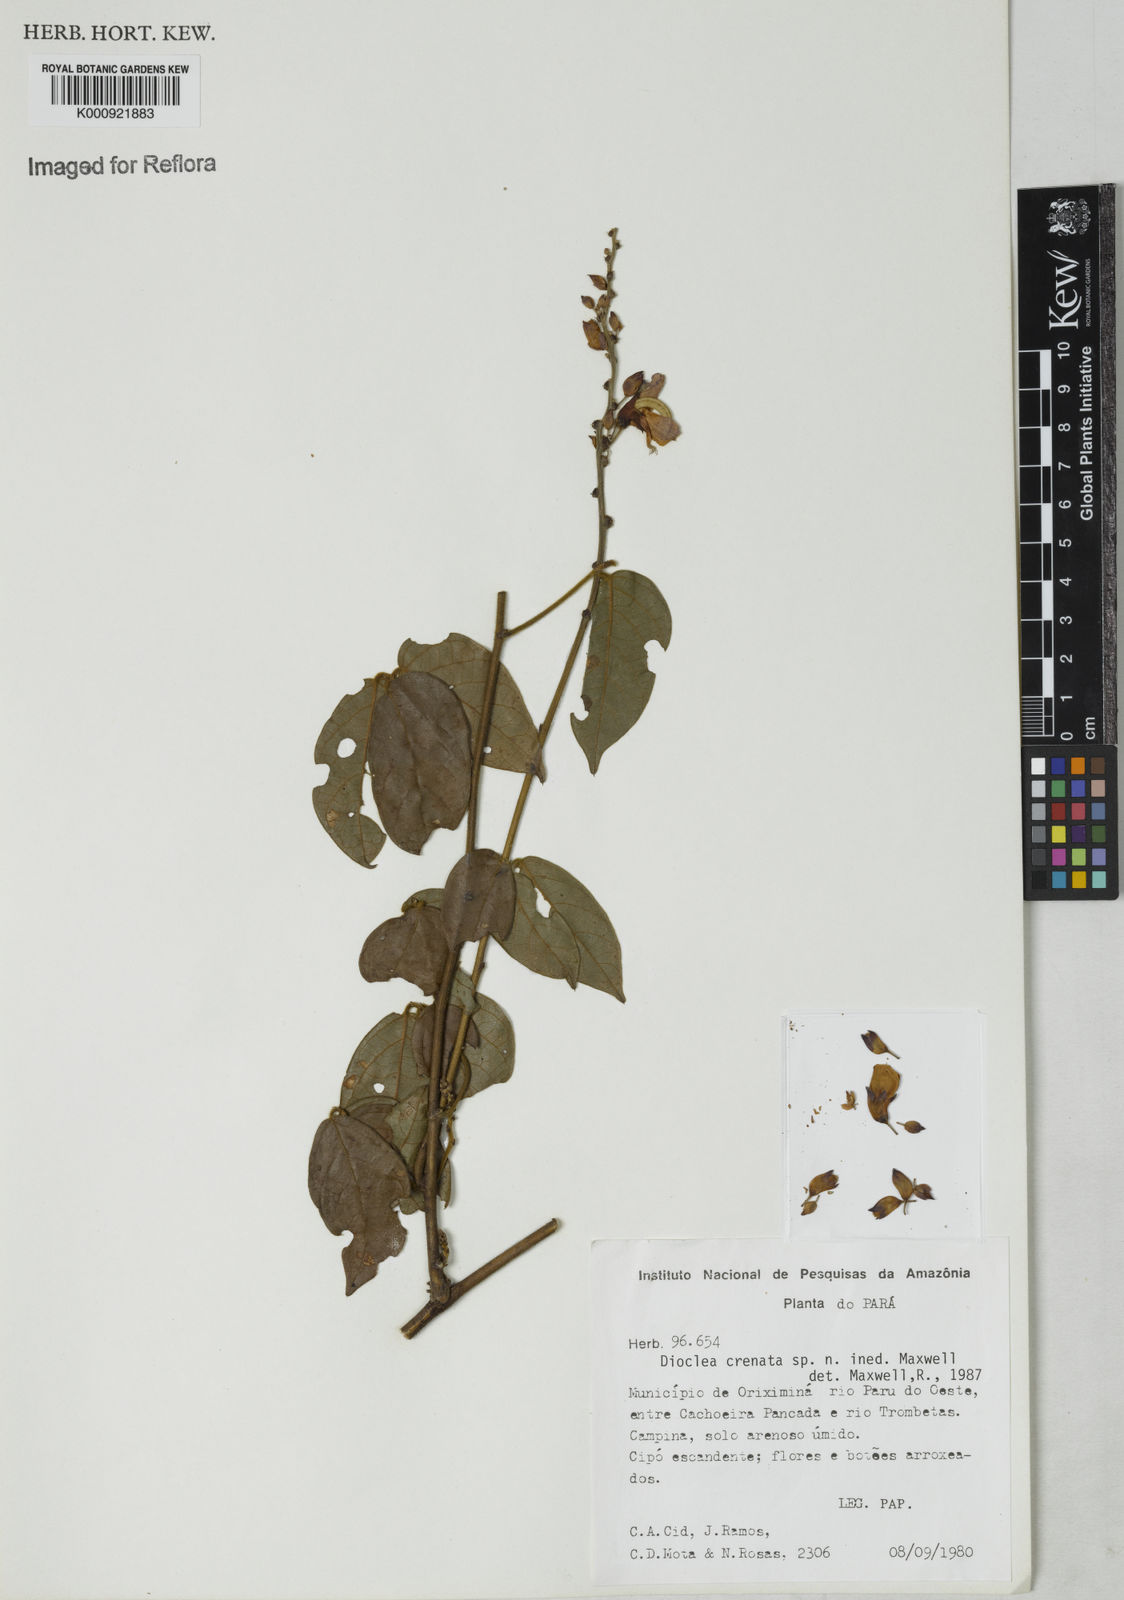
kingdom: Plantae
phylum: Tracheophyta
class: Magnoliopsida
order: Fabales
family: Fabaceae
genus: Dioclea
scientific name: Dioclea
